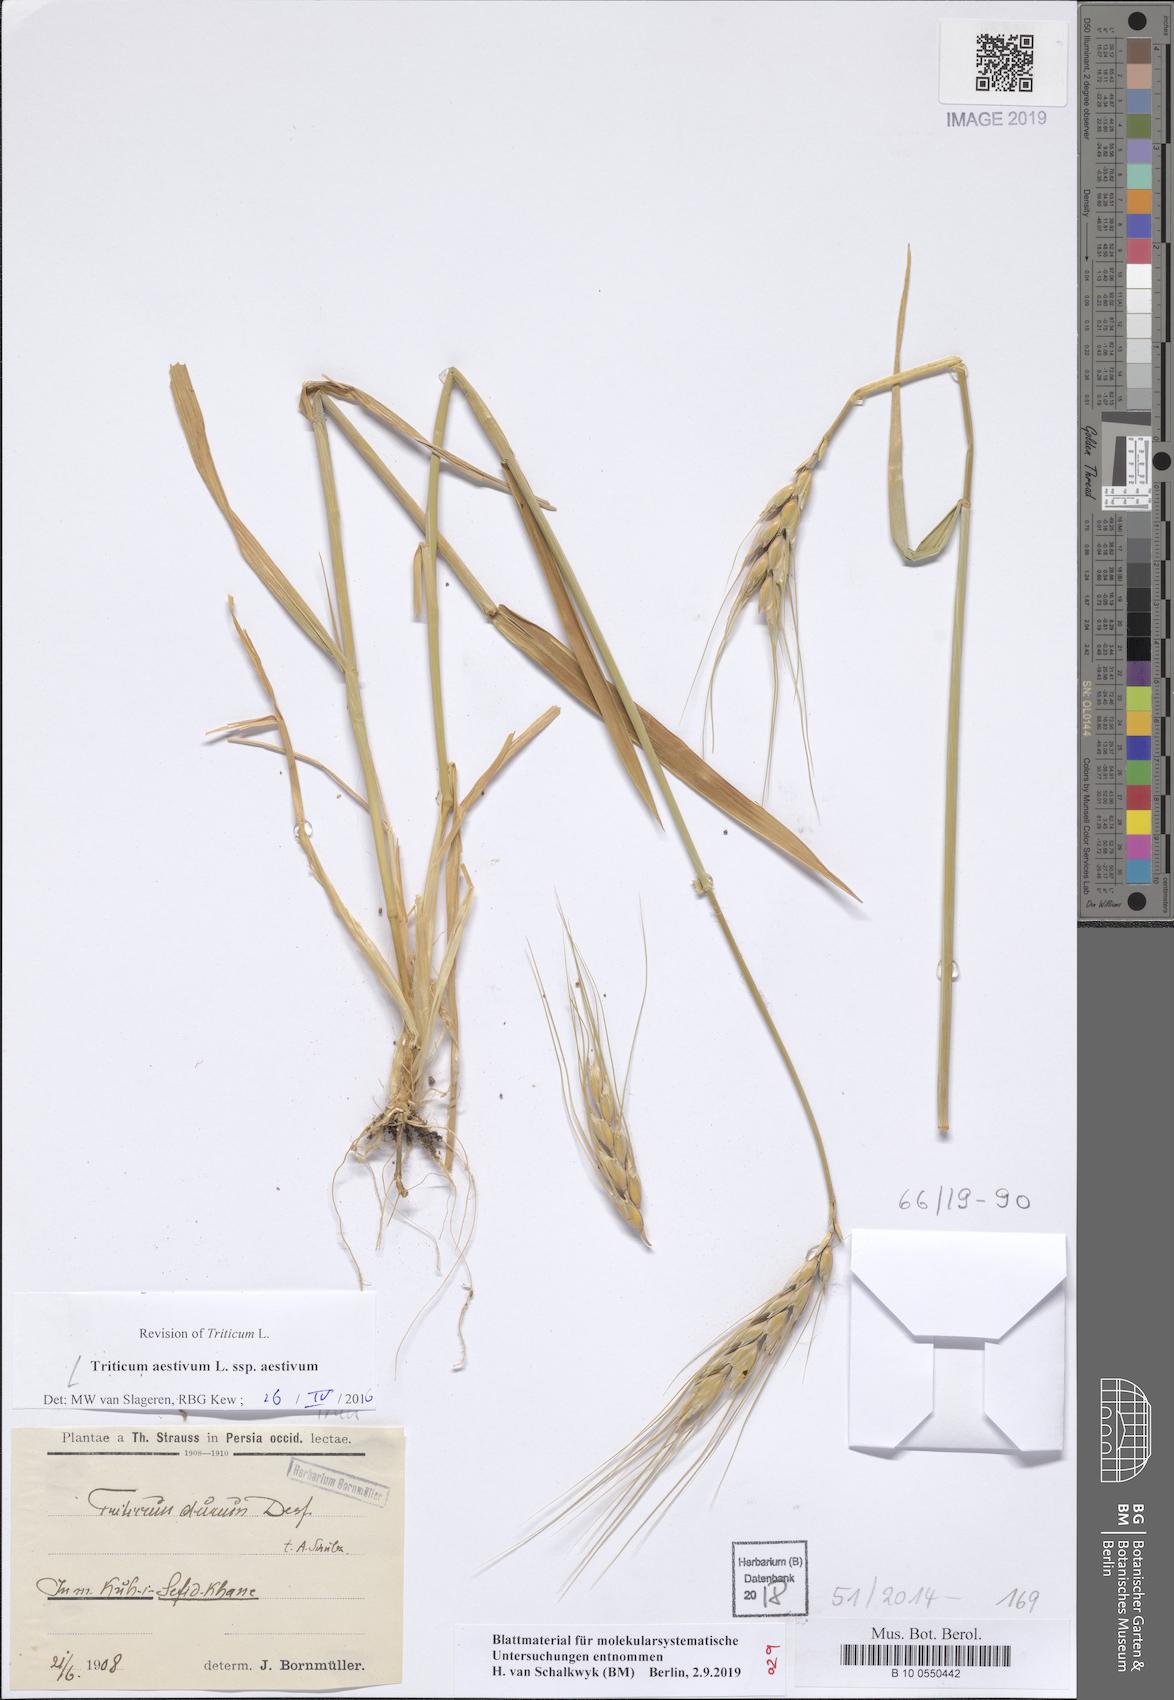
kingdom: Plantae
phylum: Tracheophyta
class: Liliopsida
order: Poales
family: Poaceae
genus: Triticum
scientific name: Triticum aestivum
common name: Common wheat
